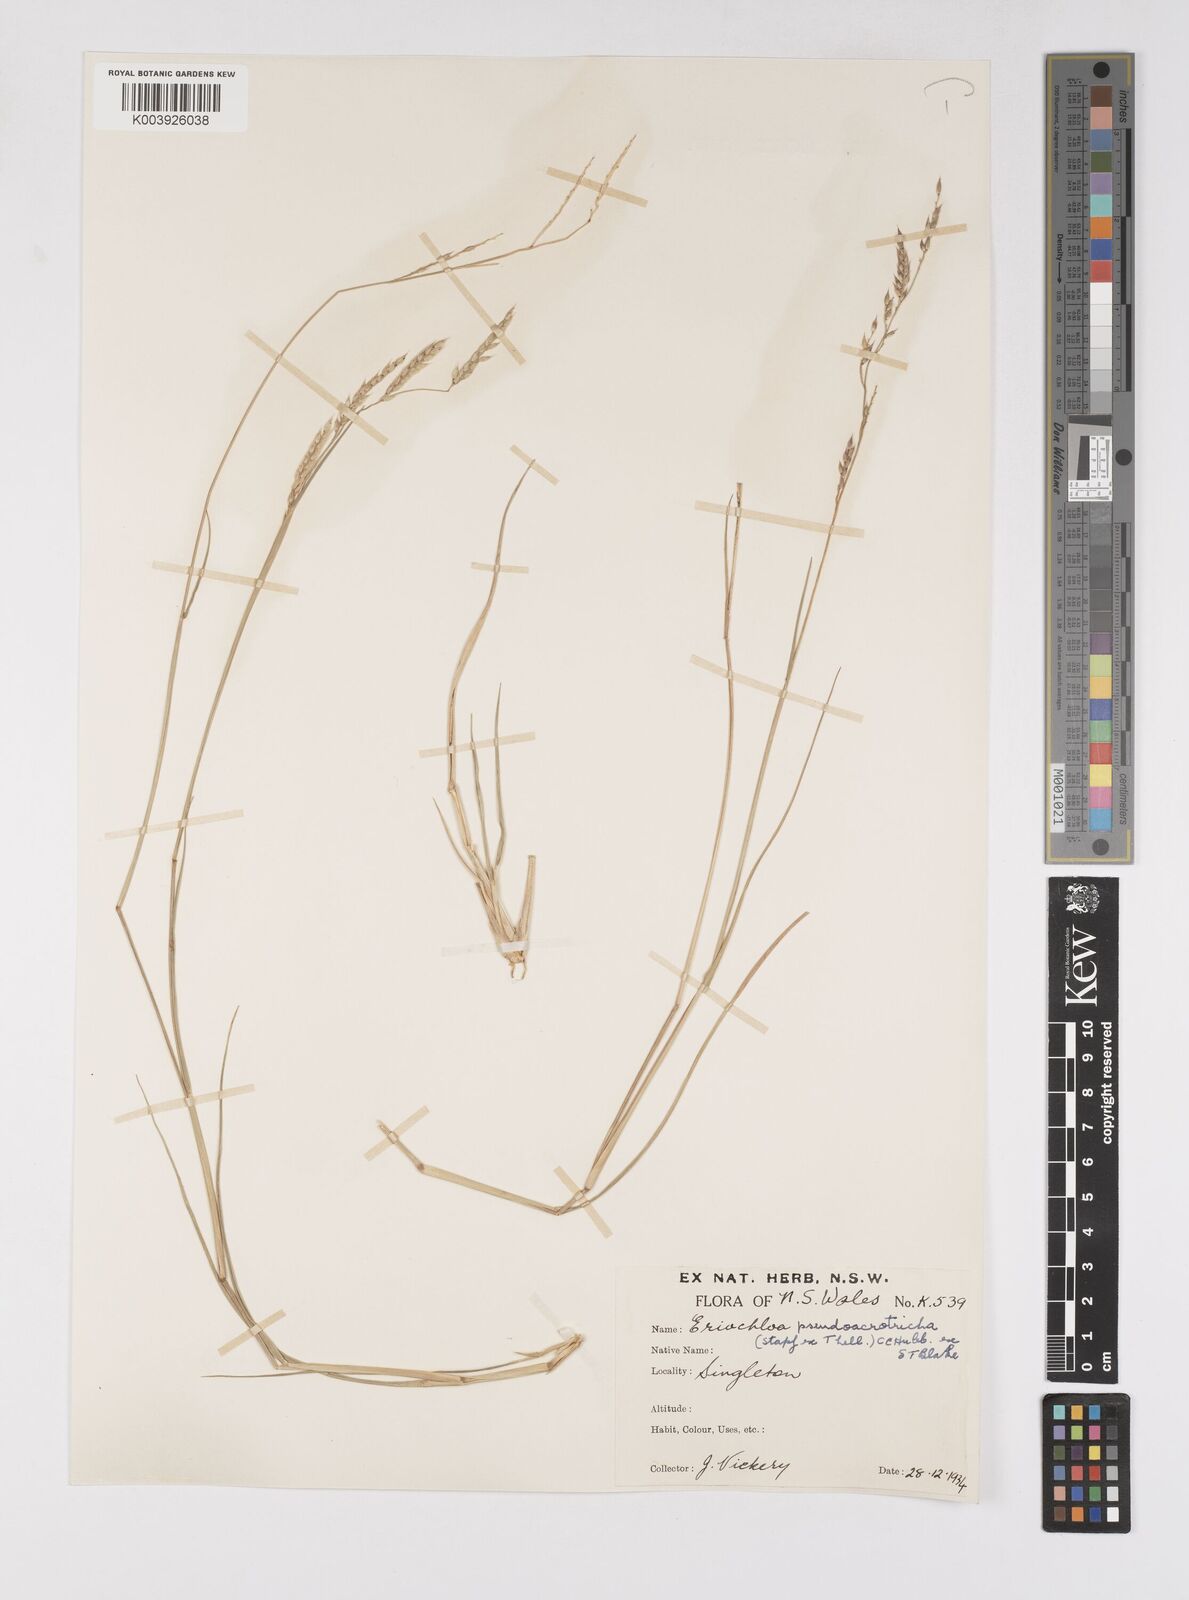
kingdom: Plantae
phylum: Tracheophyta
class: Liliopsida
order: Poales
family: Poaceae
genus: Eriochloa
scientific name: Eriochloa pseudoacrotricha
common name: Perennial cup-grass
